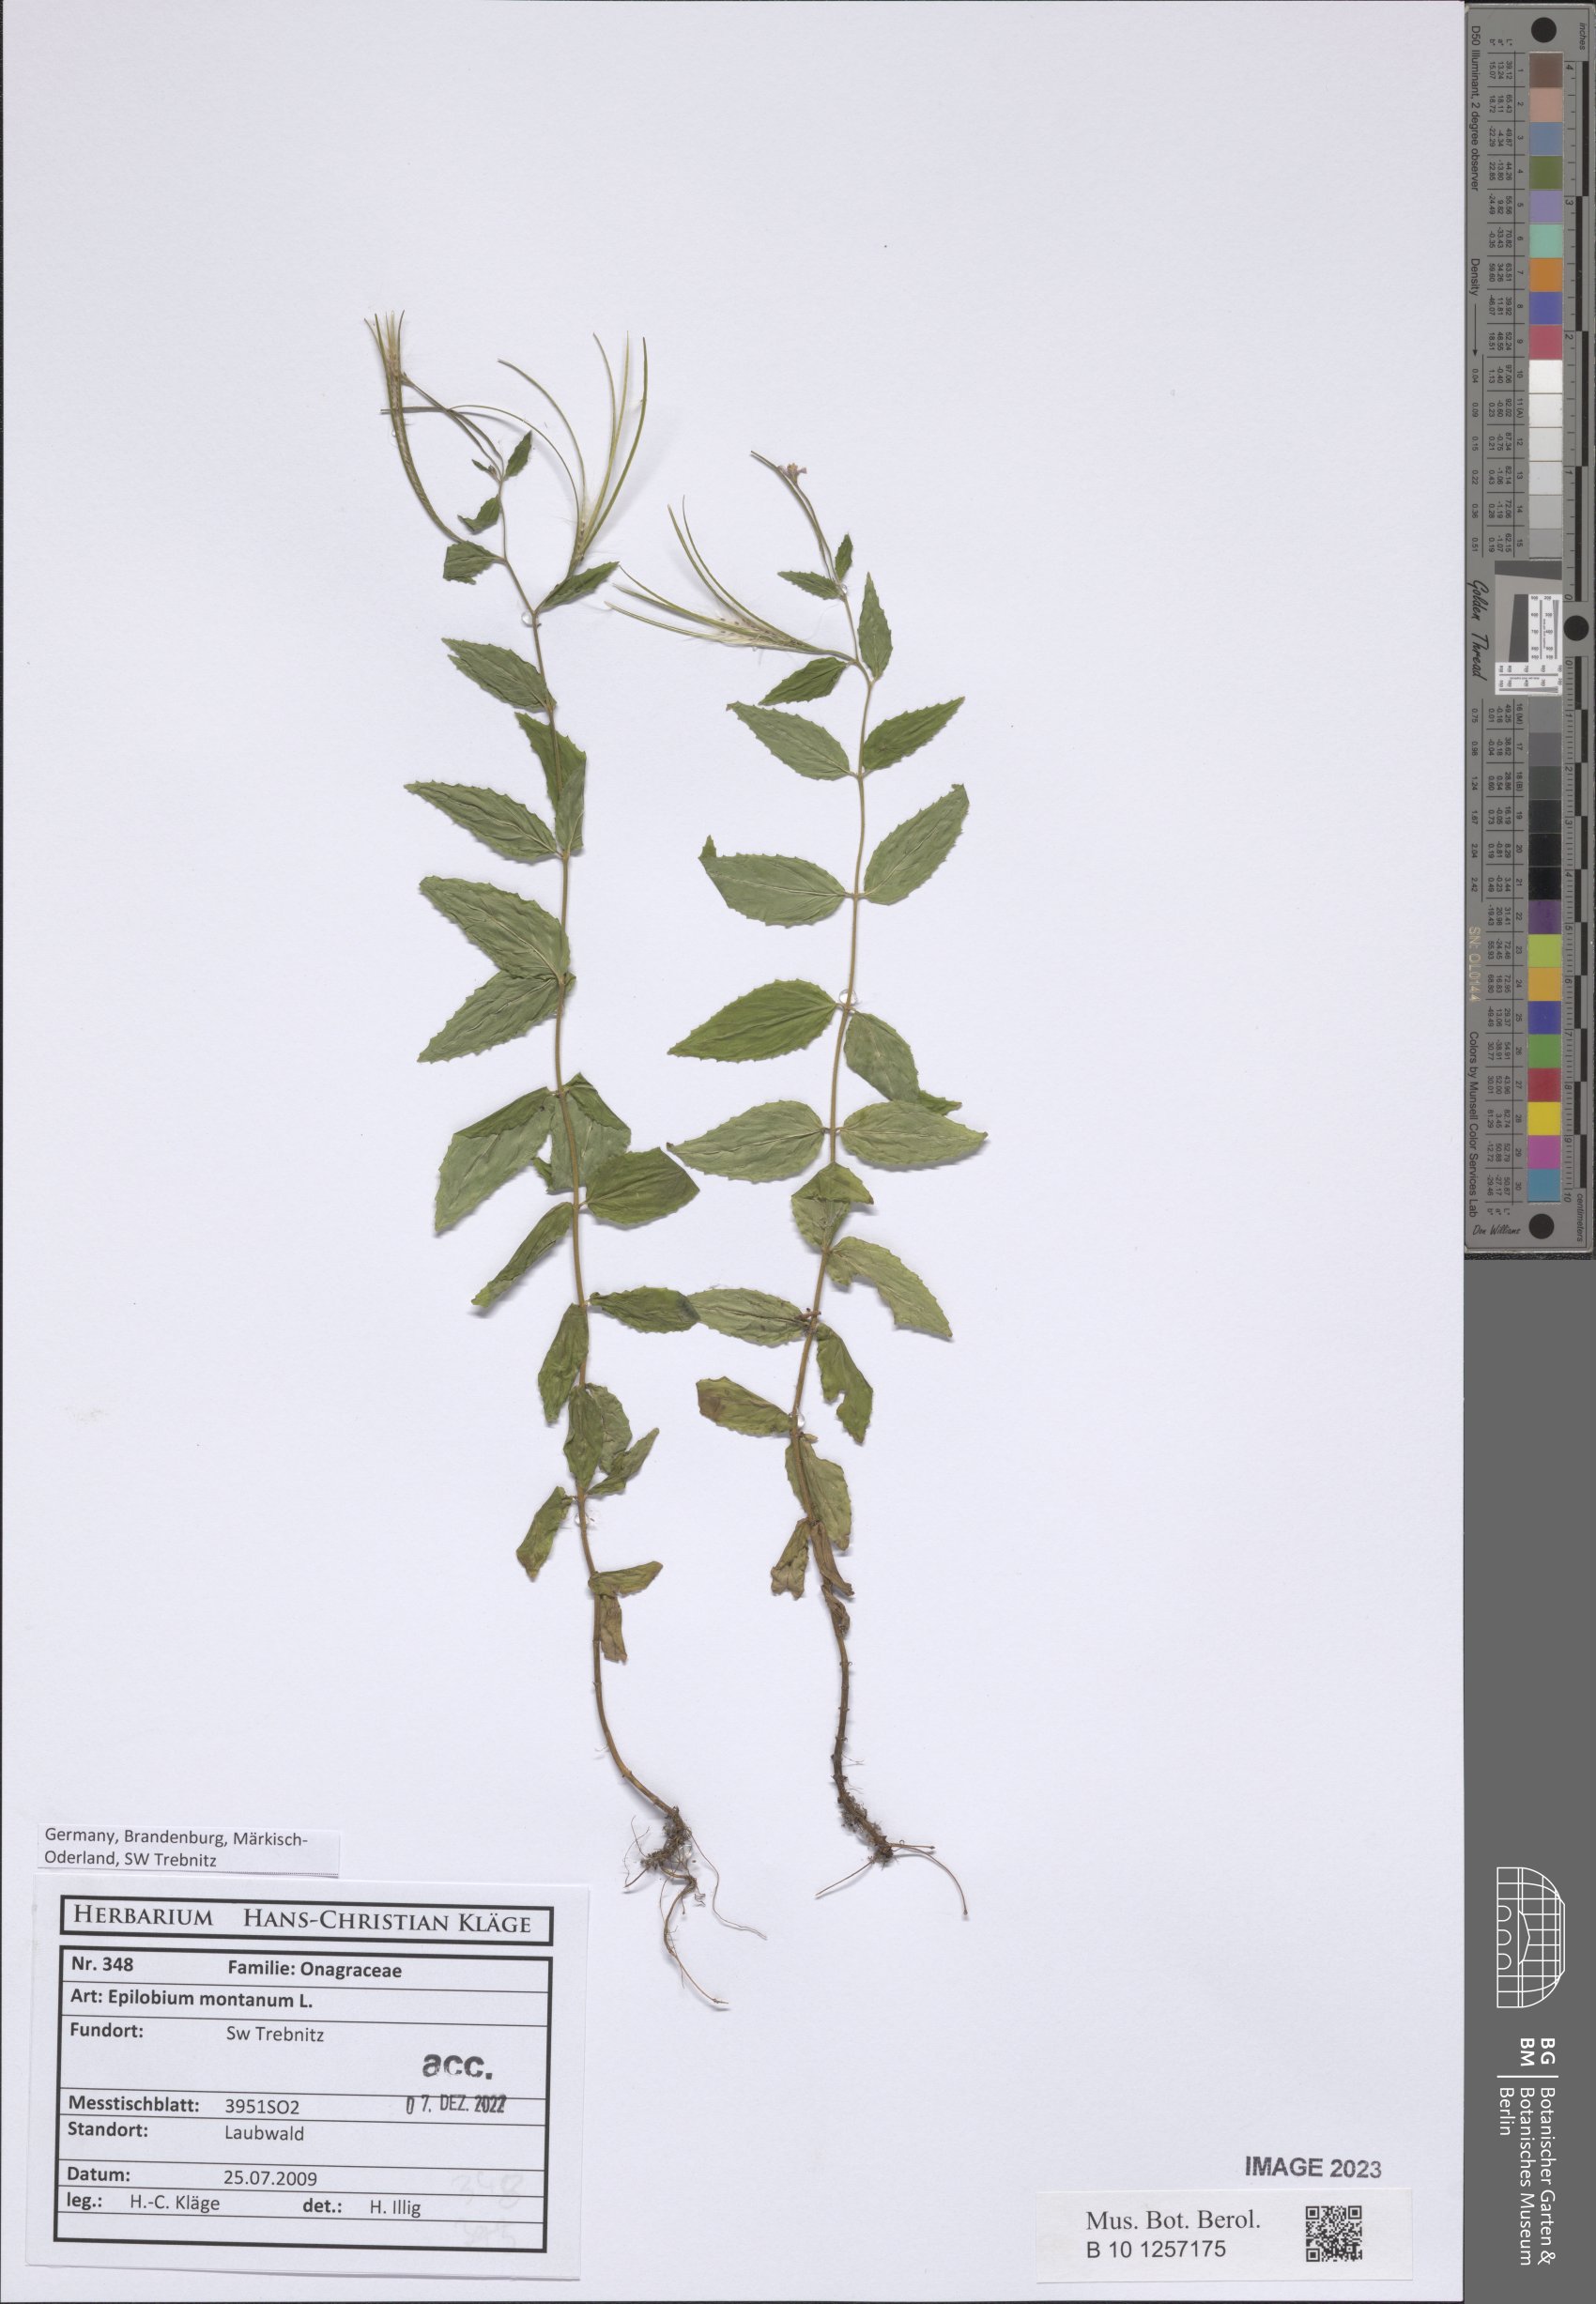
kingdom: Plantae
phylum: Tracheophyta
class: Magnoliopsida
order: Myrtales
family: Onagraceae
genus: Epilobium
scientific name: Epilobium montanum
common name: Broad-leaved willowherb
